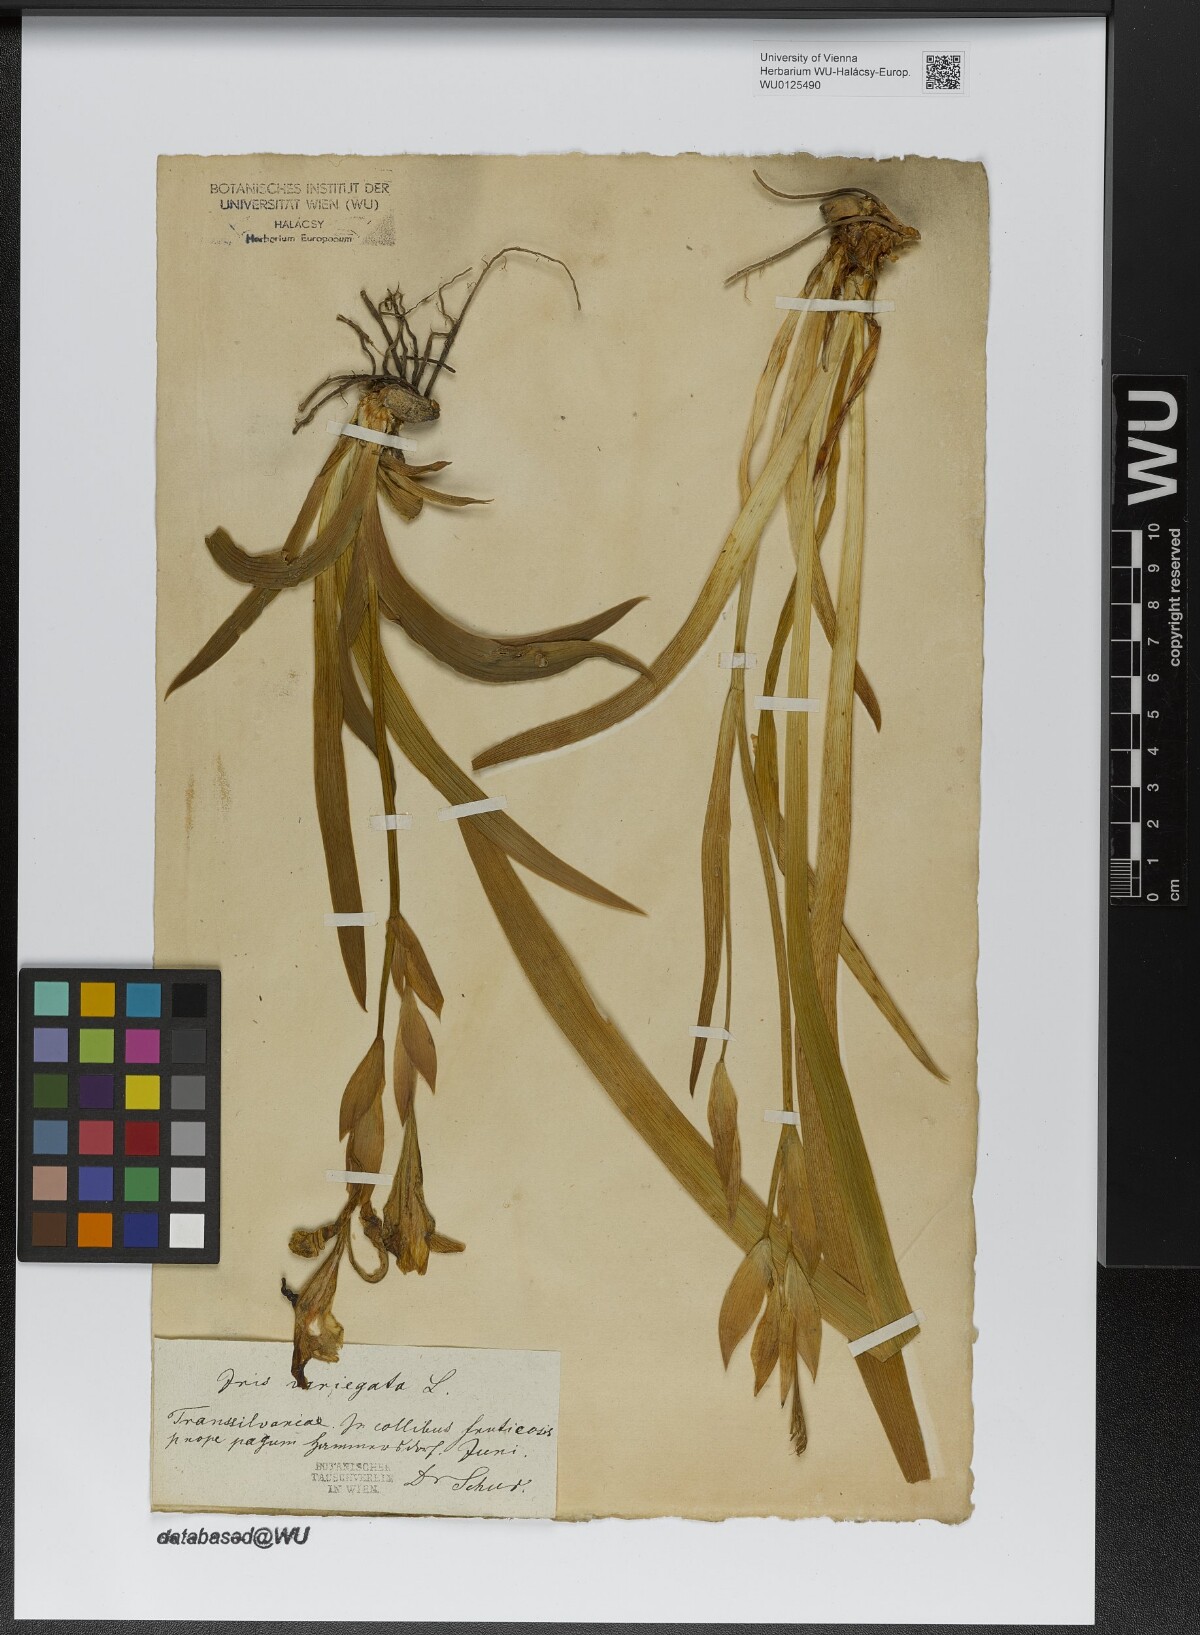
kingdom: Plantae
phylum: Tracheophyta
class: Liliopsida
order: Asparagales
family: Iridaceae
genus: Iris
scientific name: Iris variegata
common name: Hungarian iris
